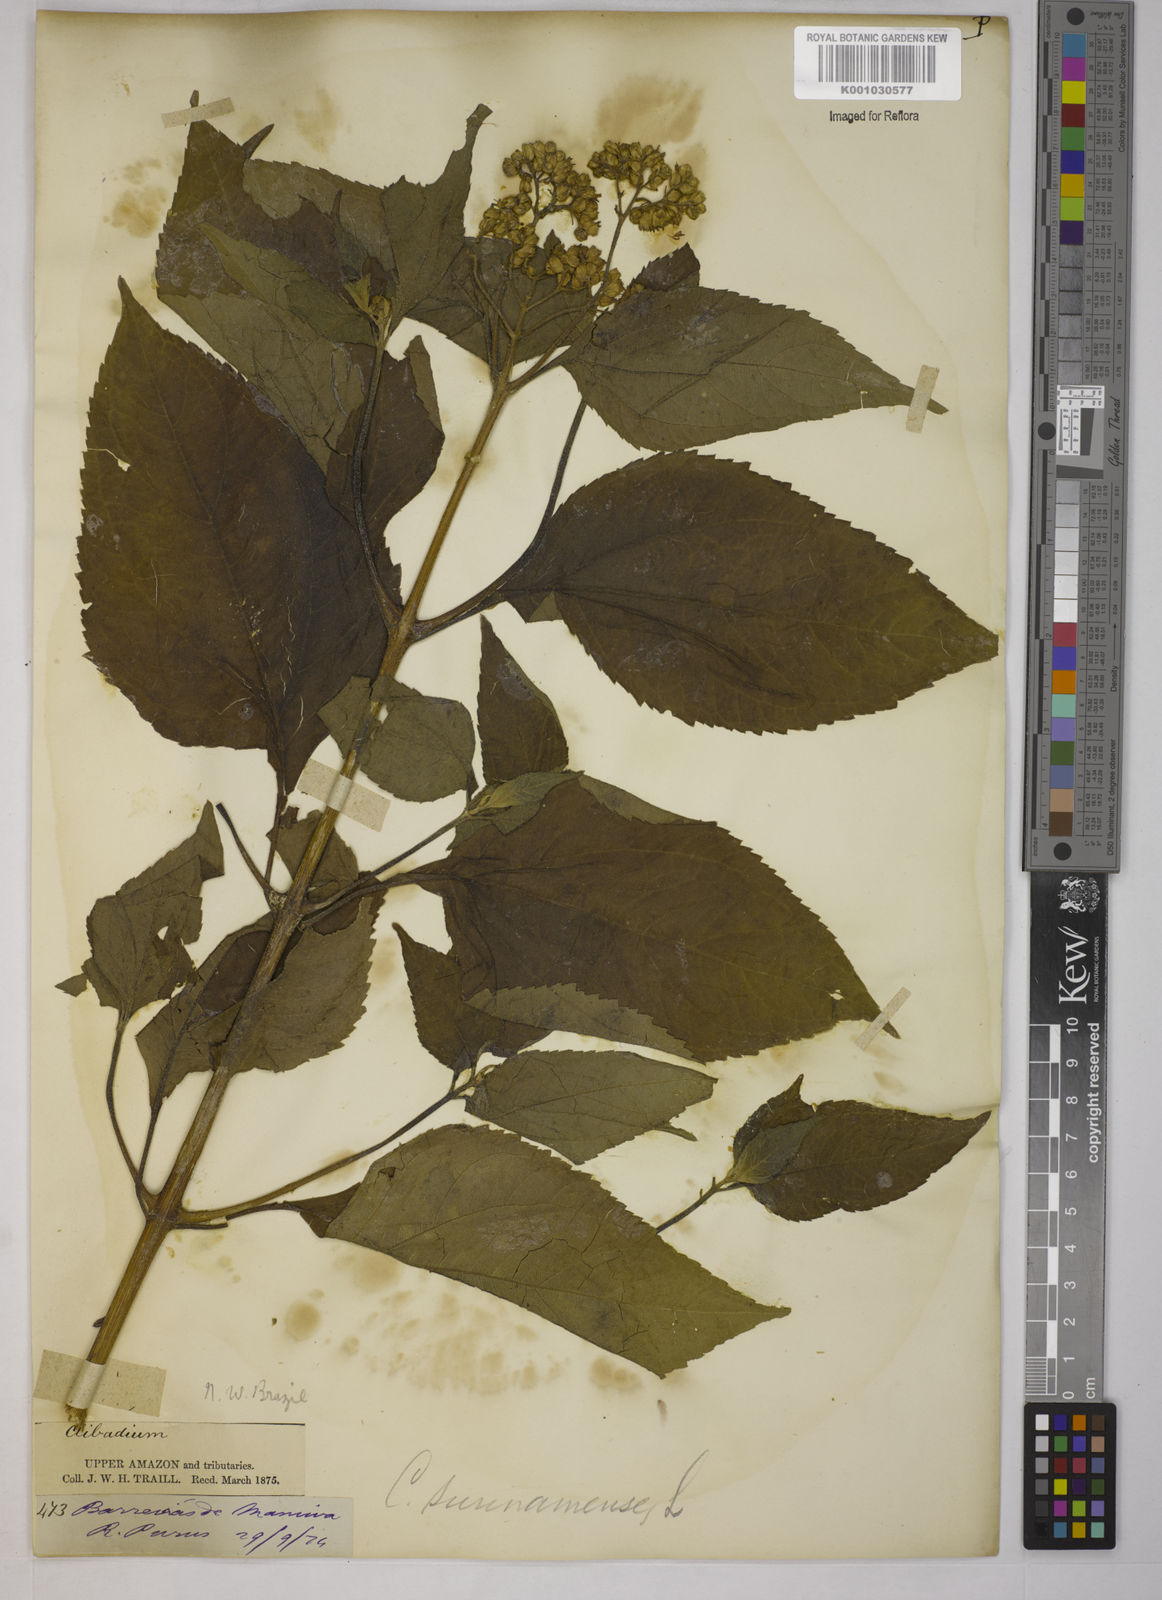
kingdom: Plantae
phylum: Tracheophyta
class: Magnoliopsida
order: Asterales
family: Asteraceae
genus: Clibadium
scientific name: Clibadium
